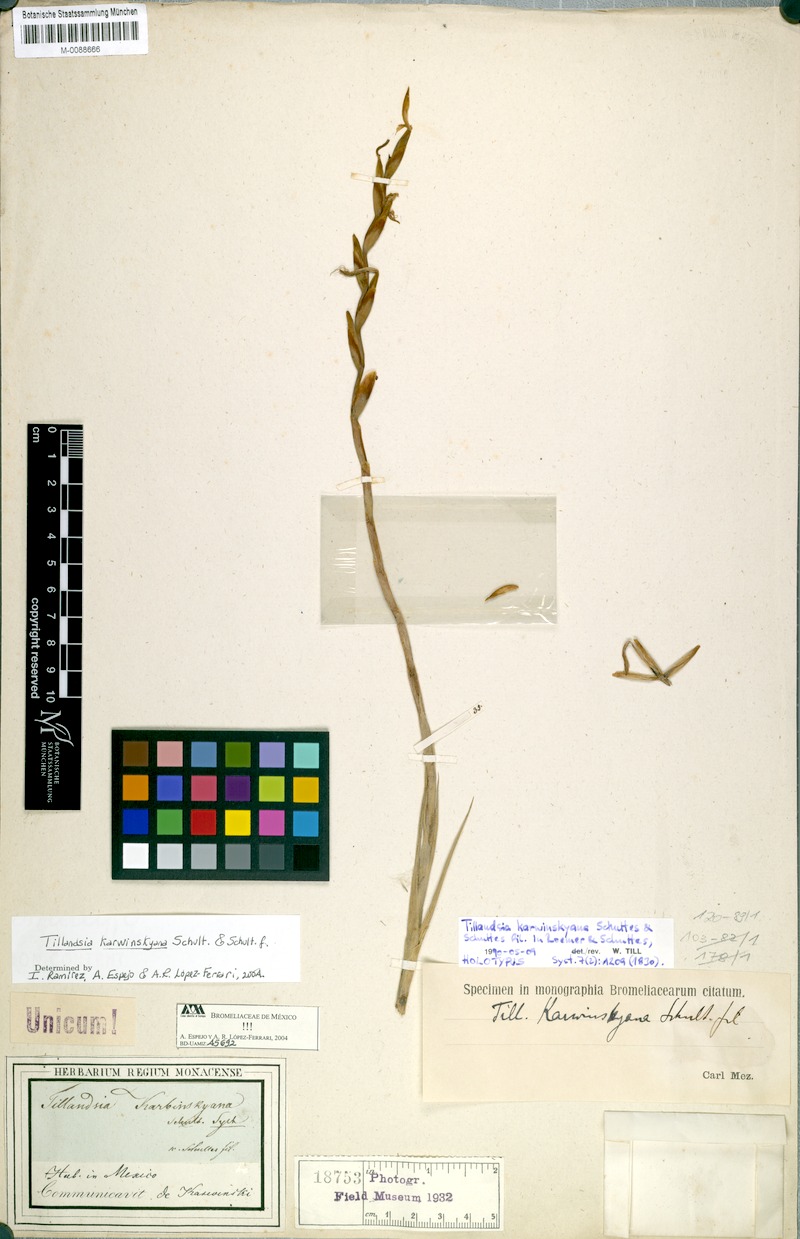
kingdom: Plantae
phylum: Tracheophyta
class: Liliopsida
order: Poales
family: Bromeliaceae
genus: Tillandsia
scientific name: Tillandsia karwinskyana
